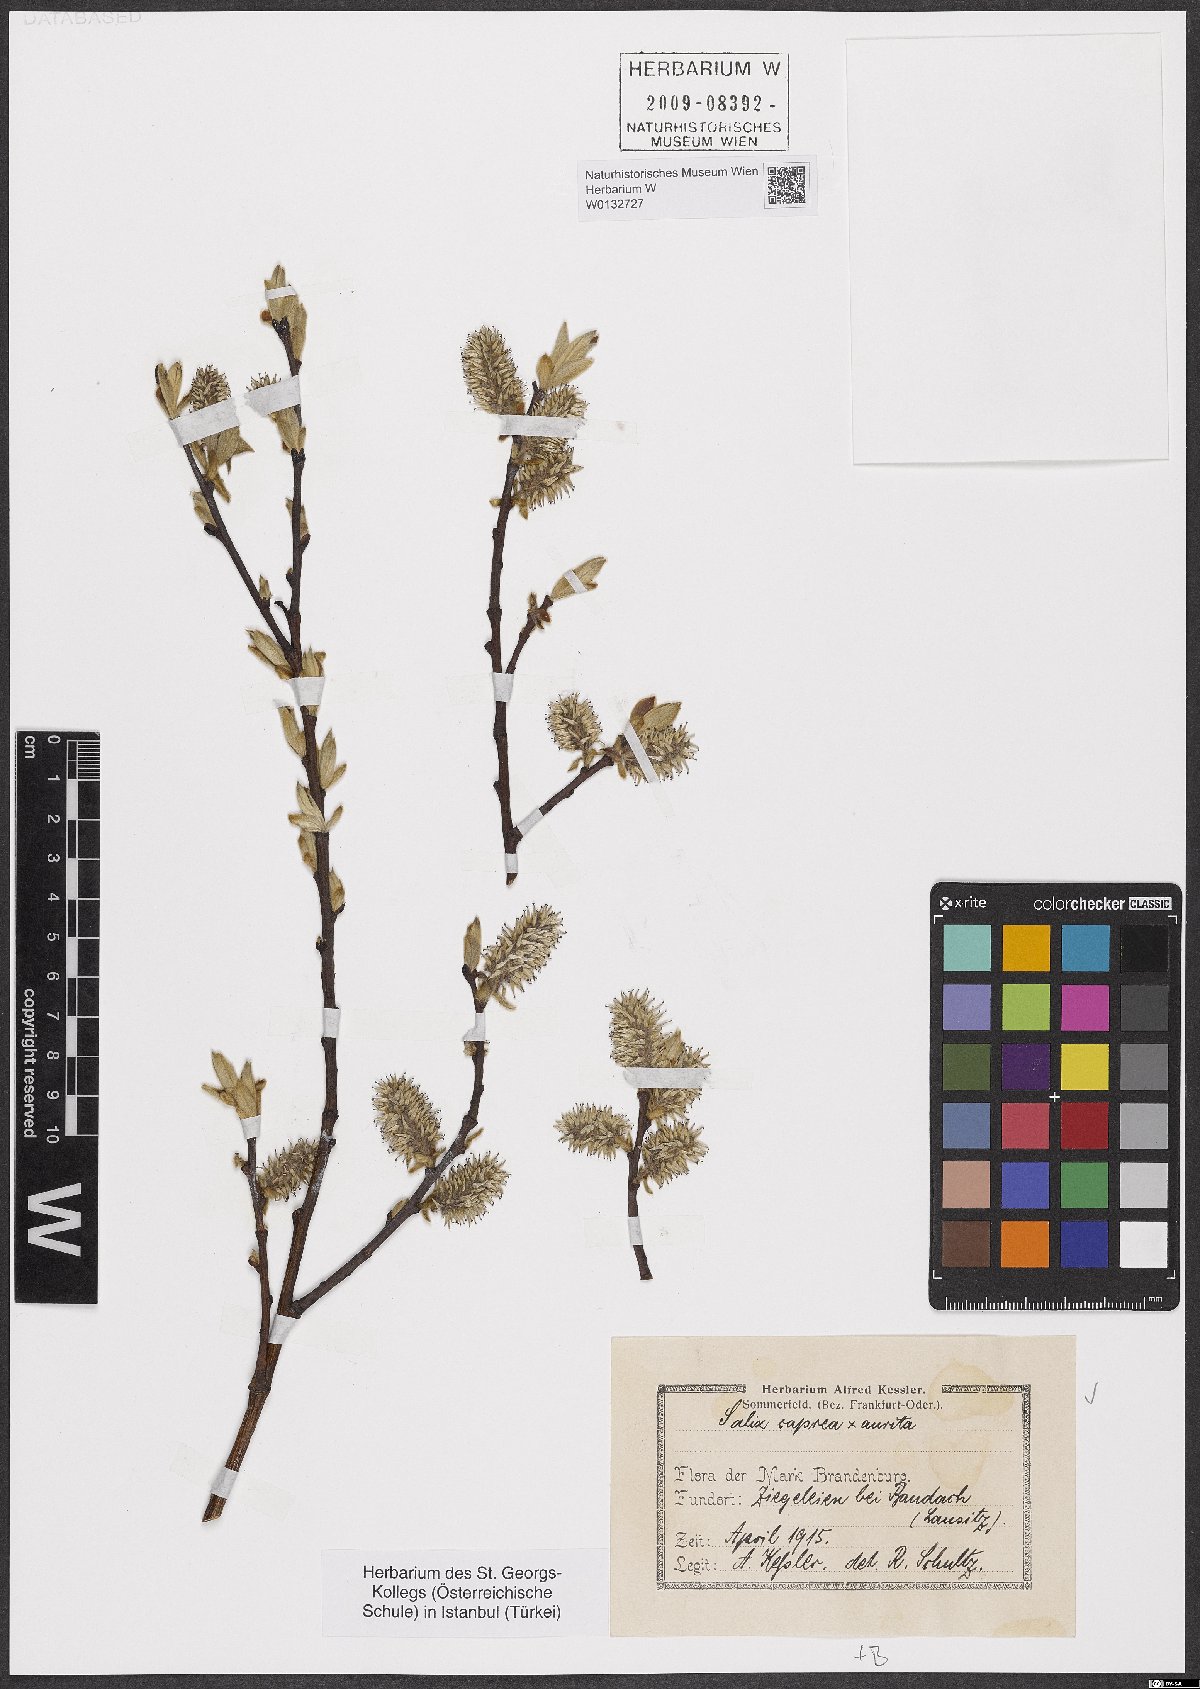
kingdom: Plantae
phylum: Tracheophyta
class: Magnoliopsida
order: Malpighiales
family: Salicaceae
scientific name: Salicaceae
